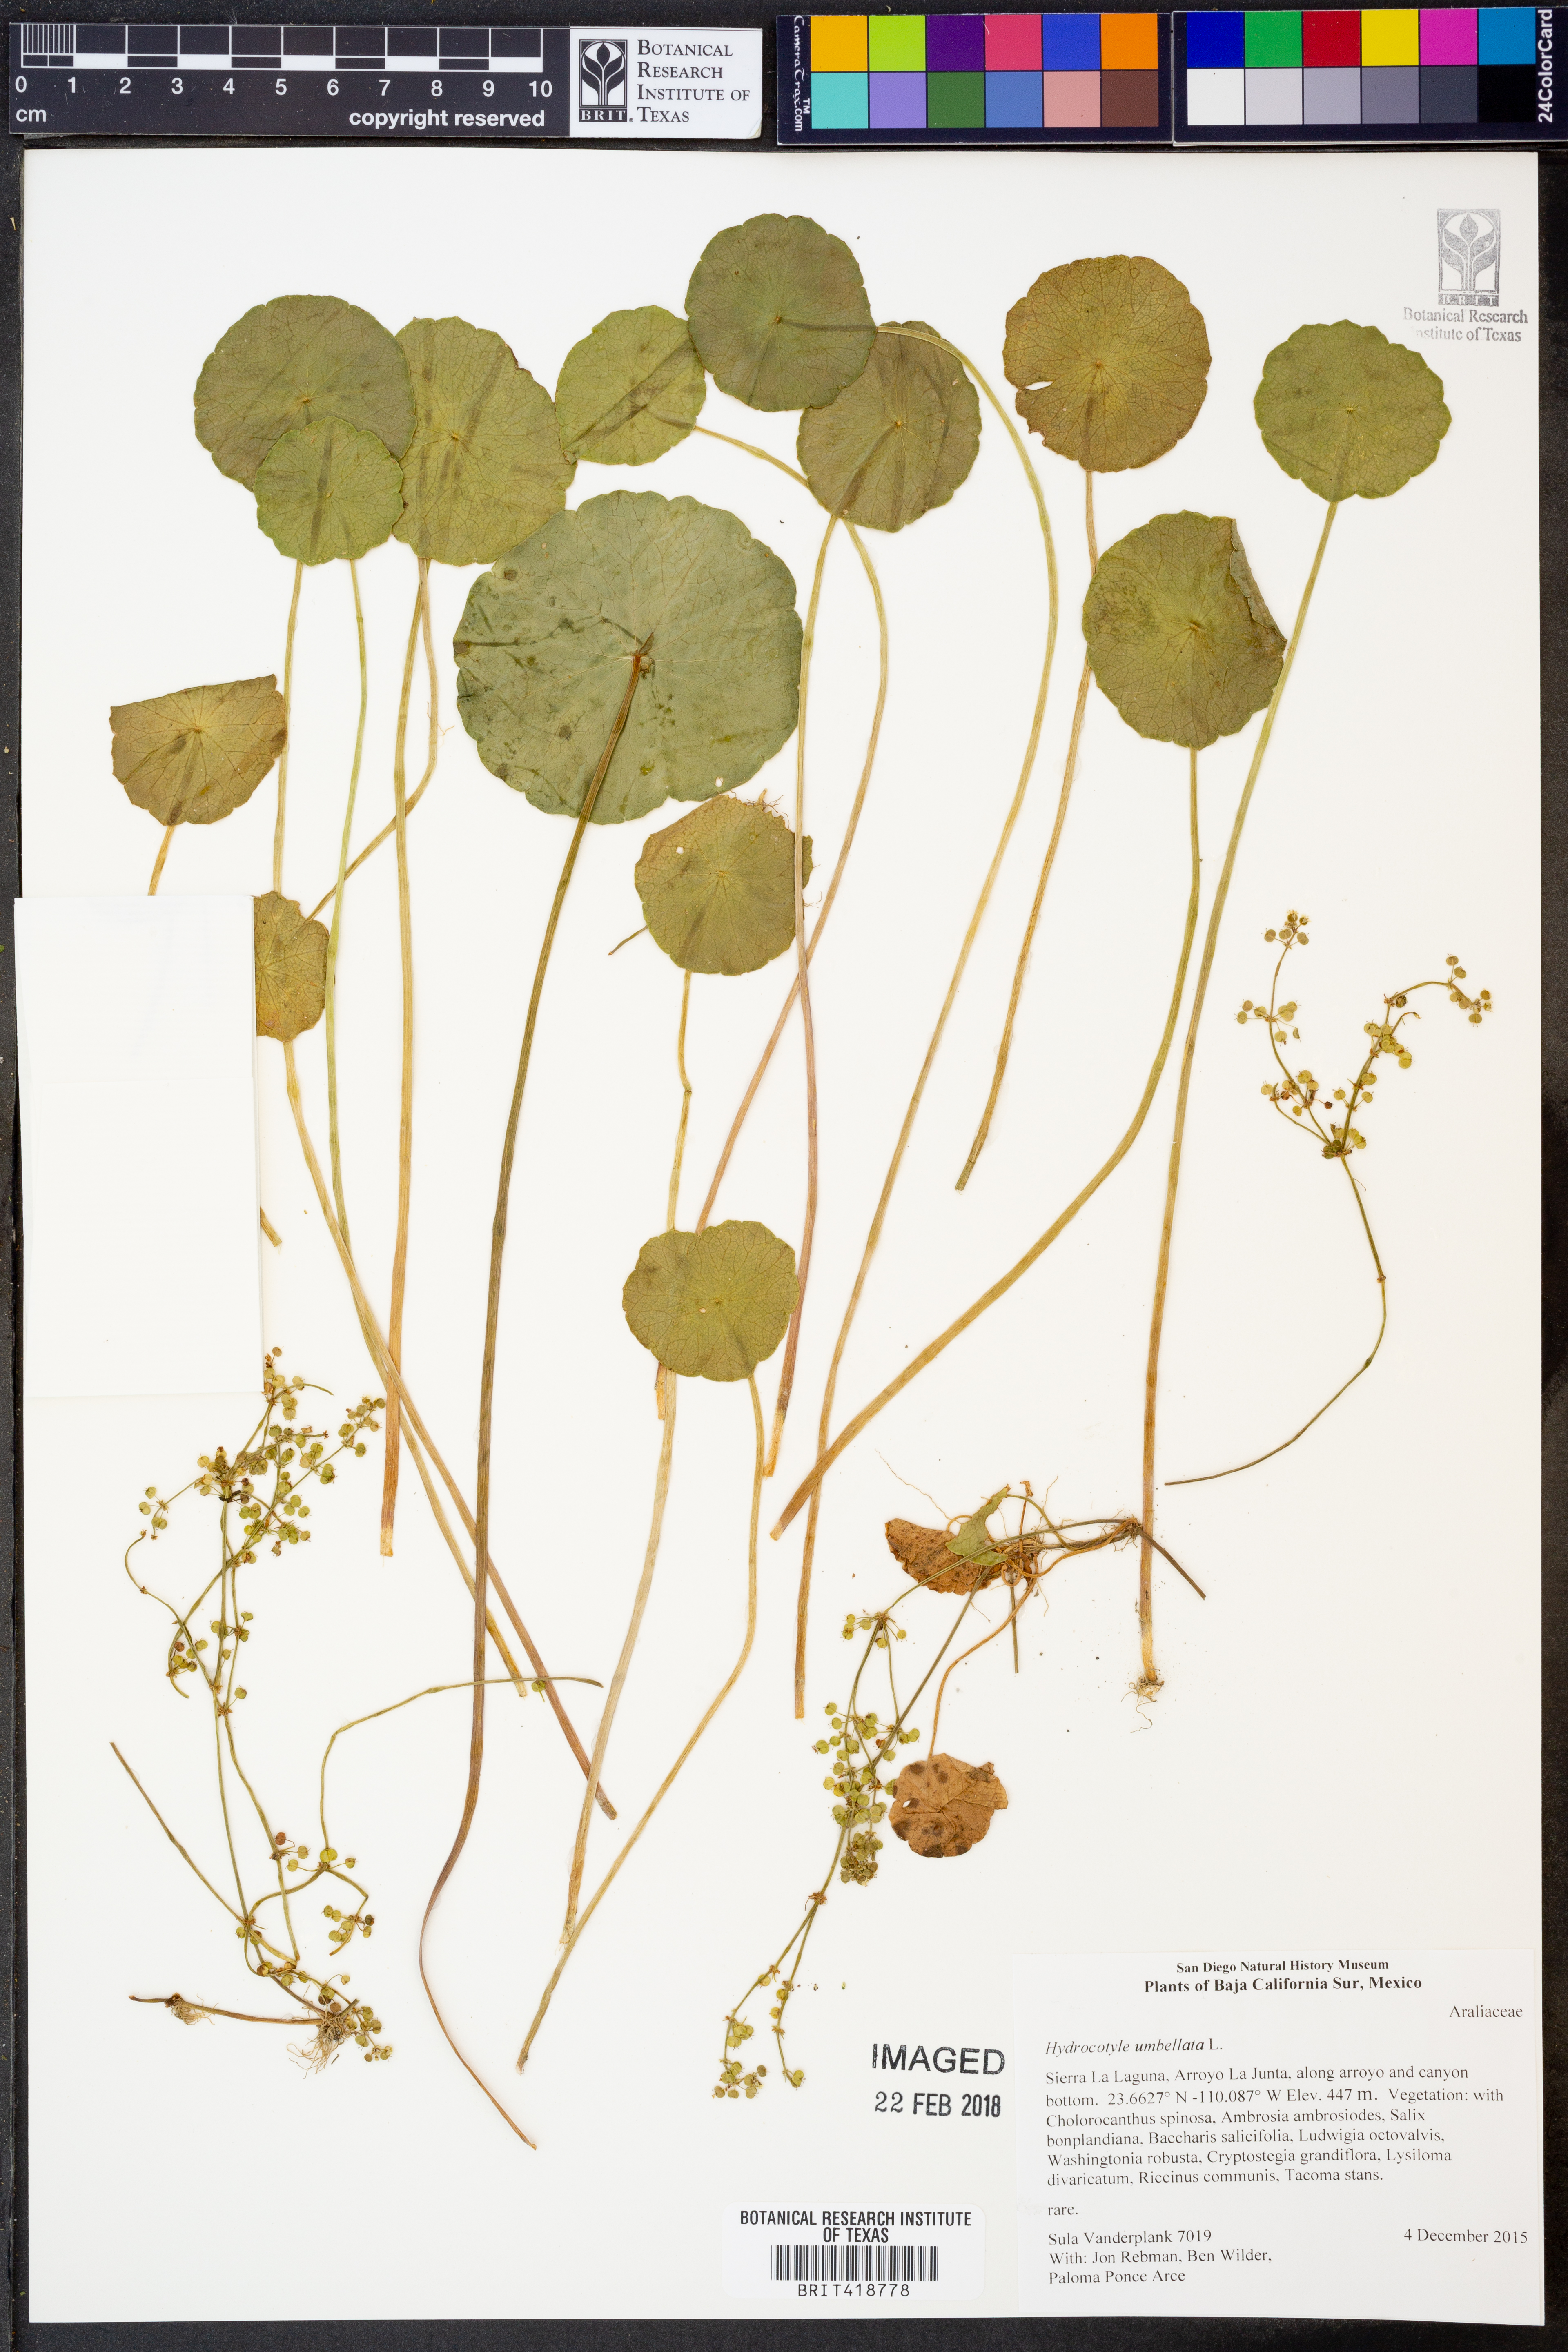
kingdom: Plantae
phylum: Tracheophyta
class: Magnoliopsida
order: Apiales
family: Araliaceae
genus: Hydrocotyle
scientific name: Hydrocotyle umbellata
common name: Water pennywort
